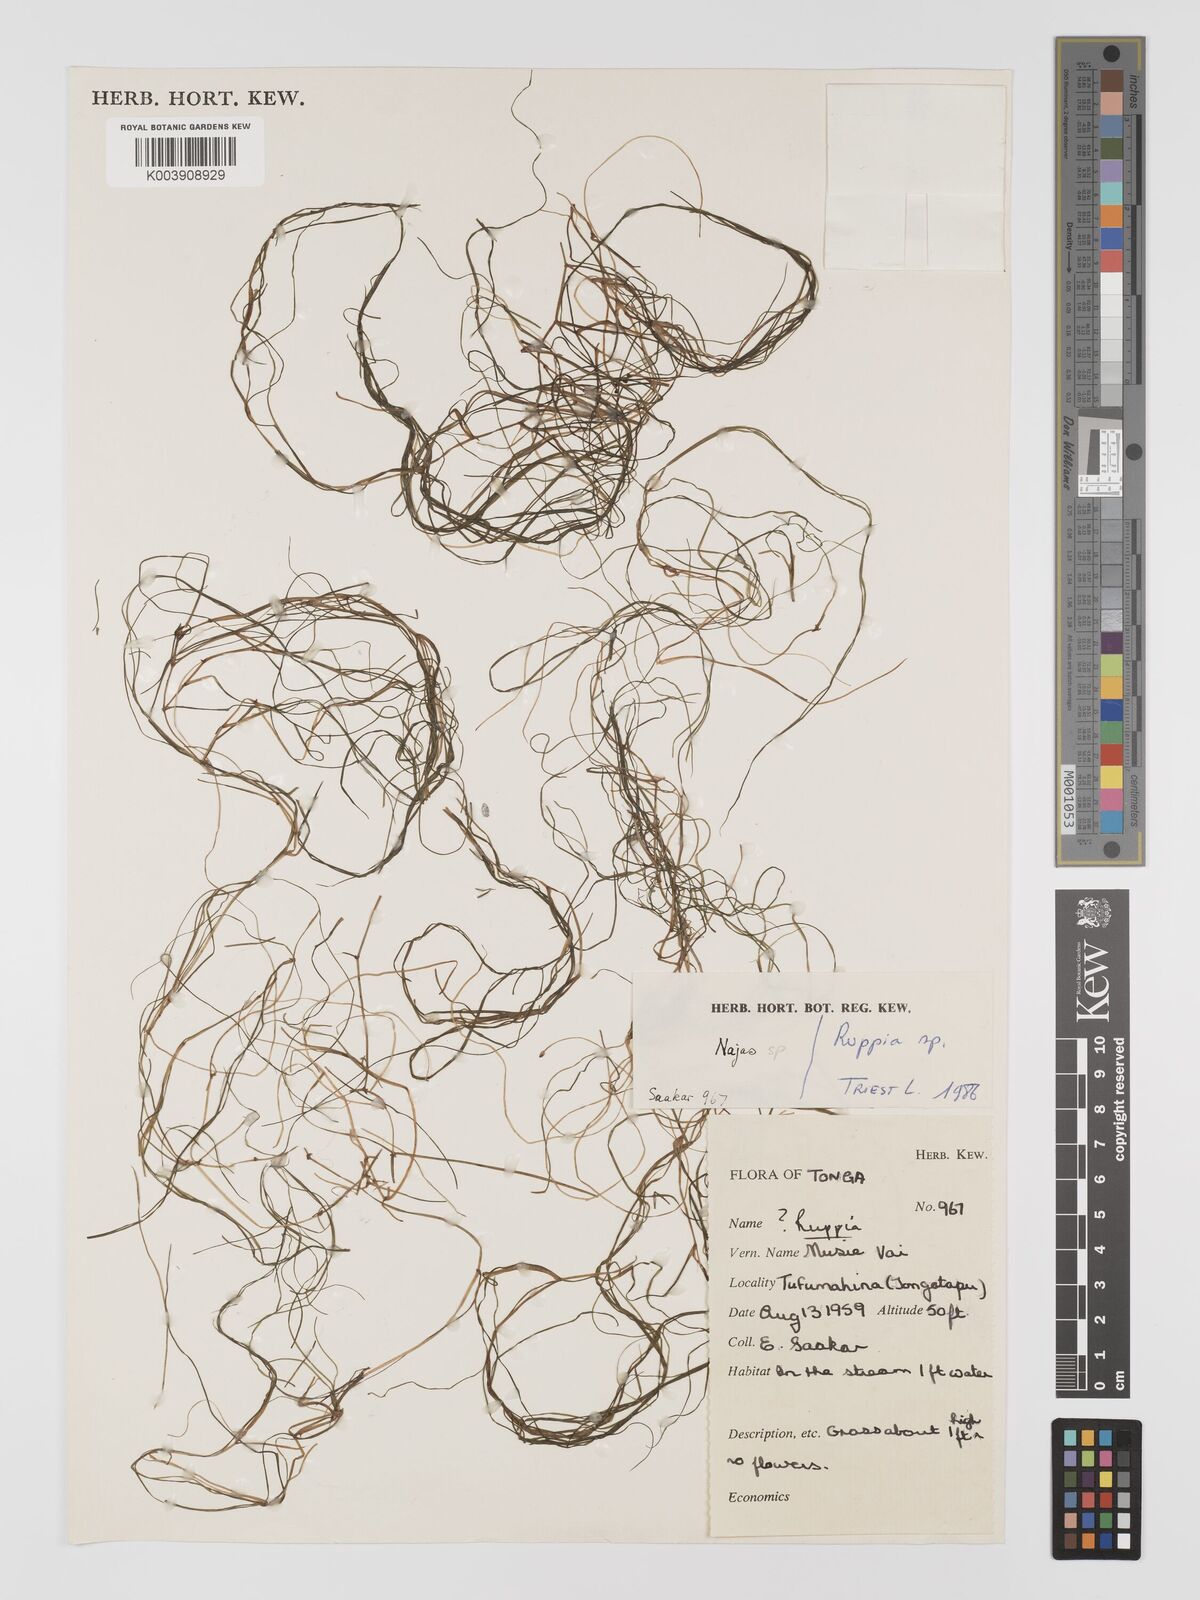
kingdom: Plantae
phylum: Tracheophyta
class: Liliopsida
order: Alismatales
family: Ruppiaceae
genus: Ruppia
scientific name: Ruppia
